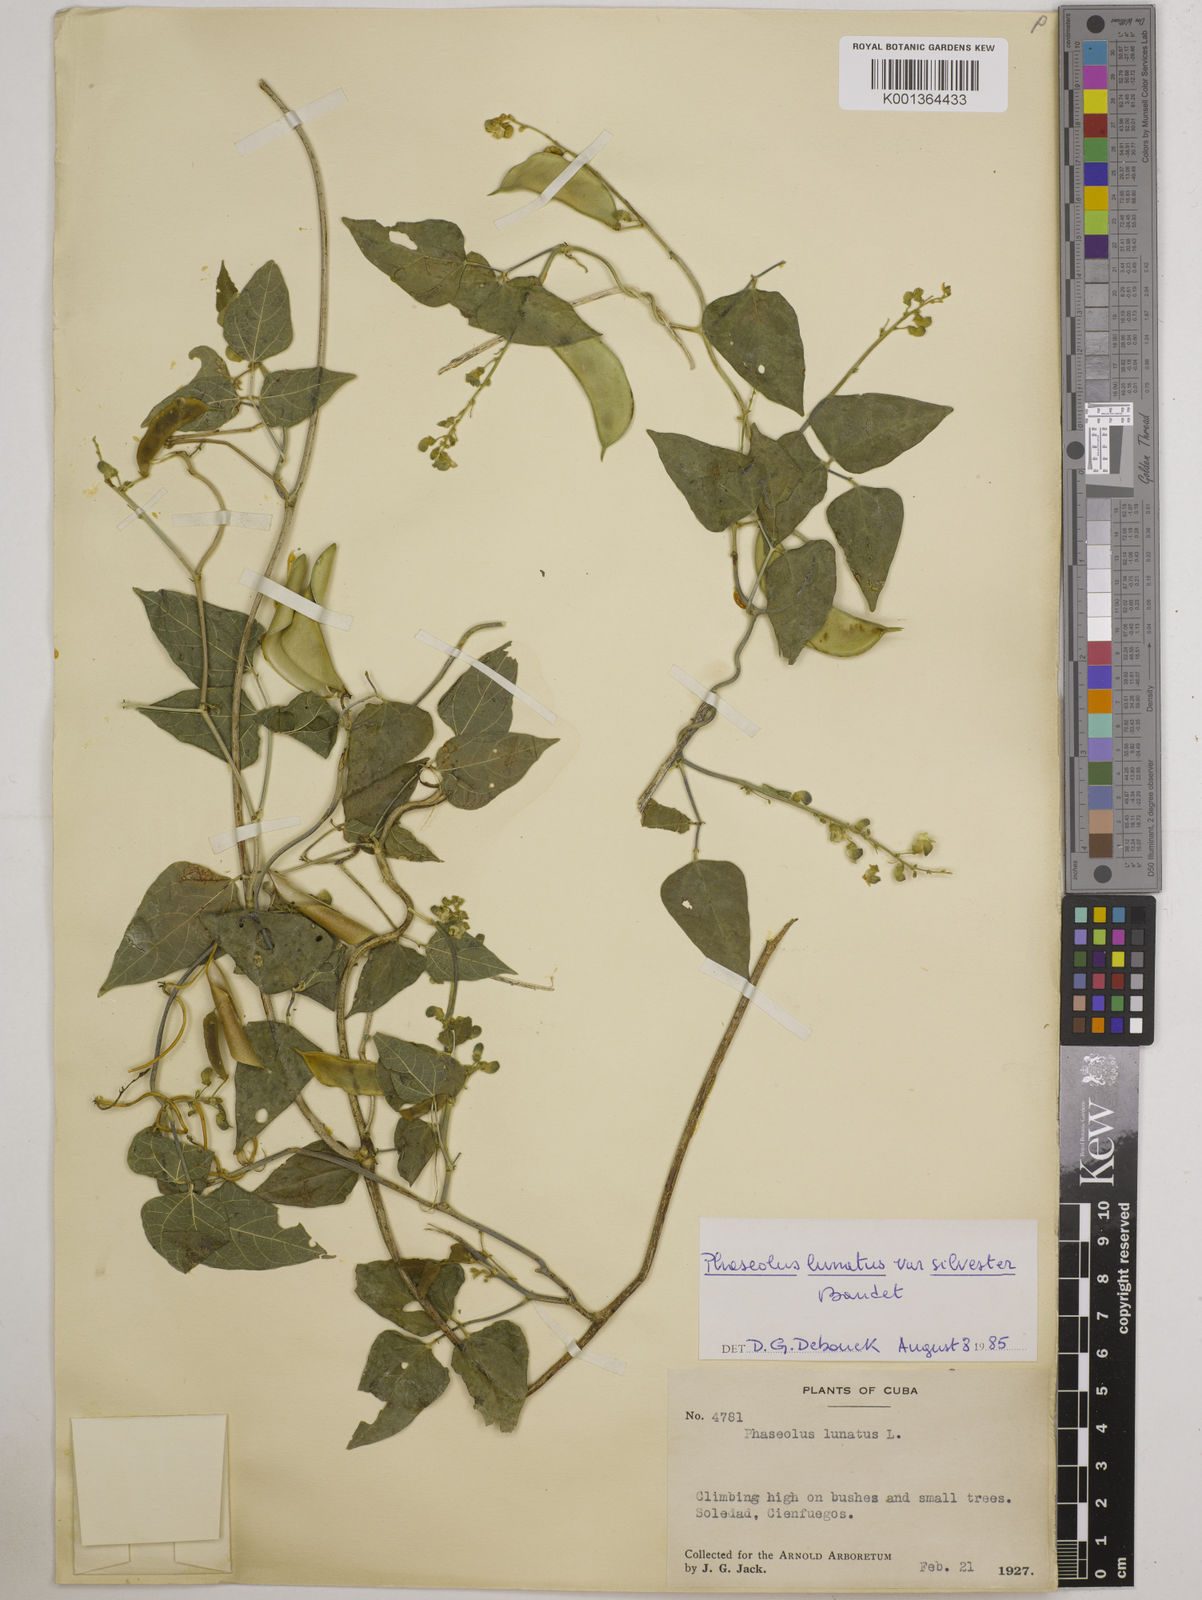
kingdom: Plantae
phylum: Tracheophyta
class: Magnoliopsida
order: Fabales
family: Fabaceae
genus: Phaseolus
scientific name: Phaseolus lunatus
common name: Sieva bean
